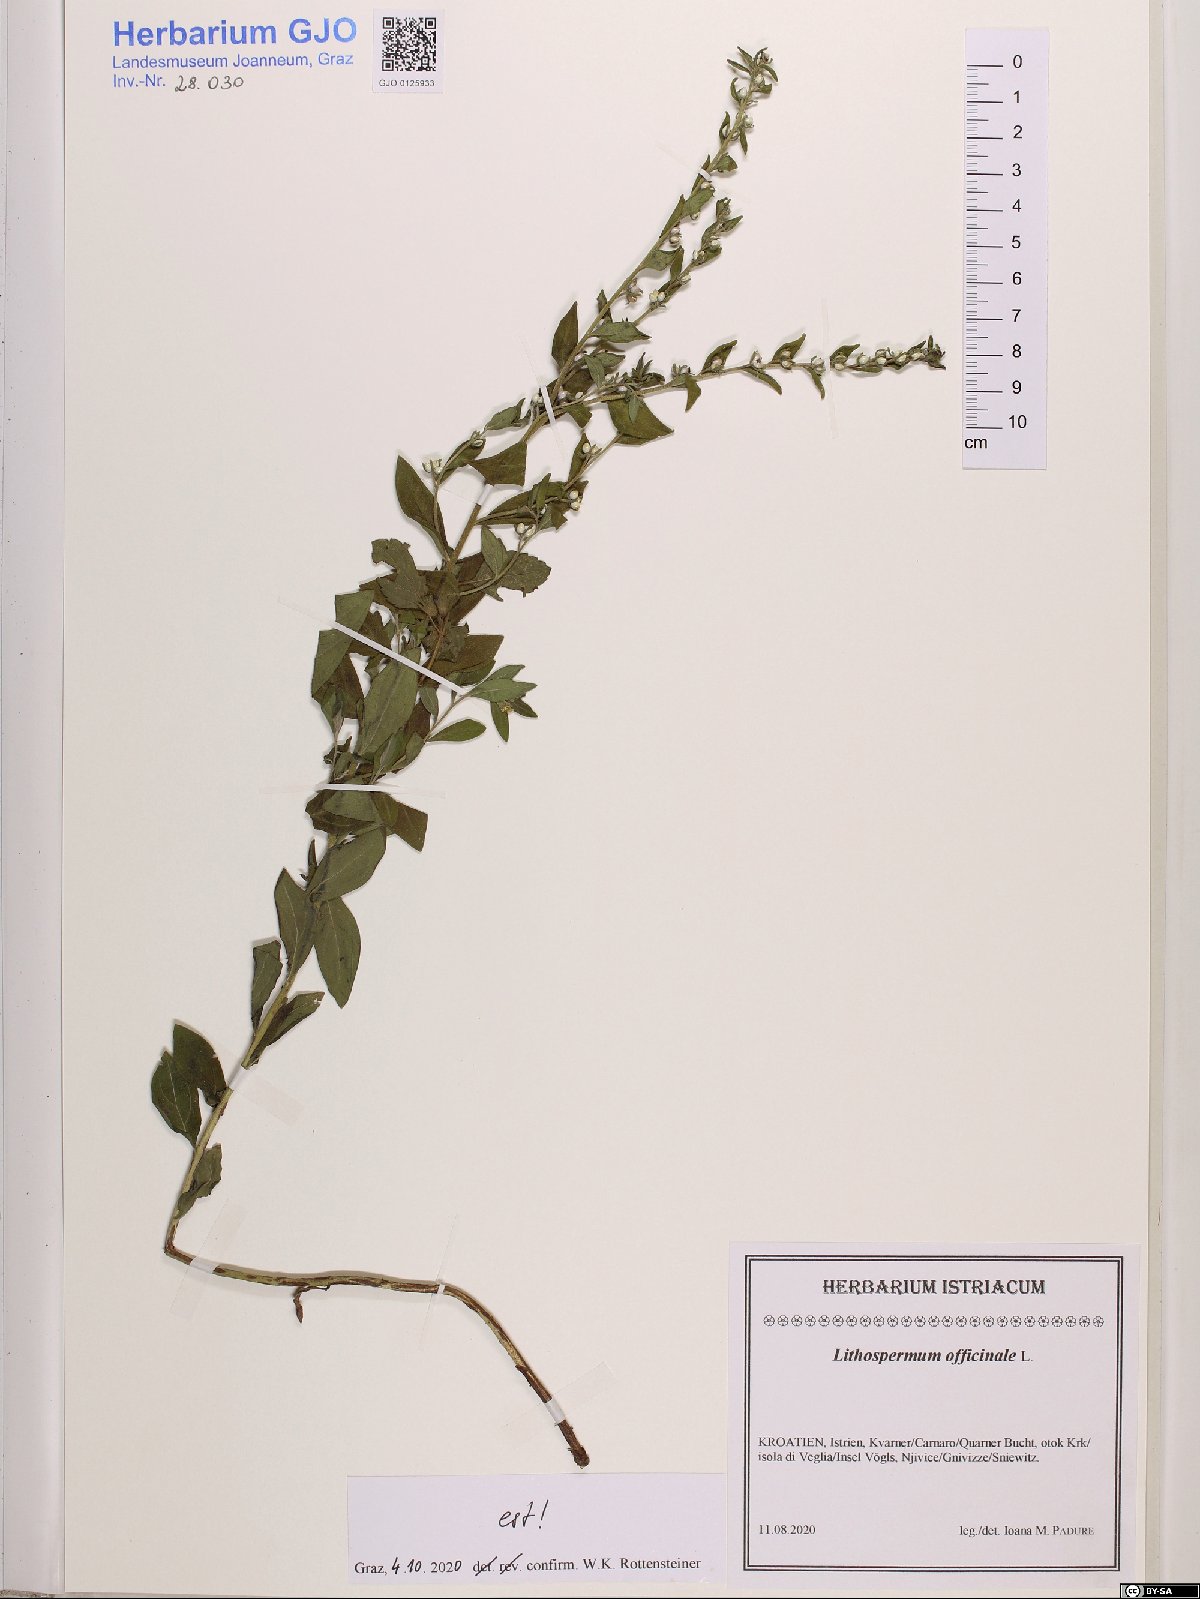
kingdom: Plantae
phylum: Tracheophyta
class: Magnoliopsida
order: Boraginales
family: Boraginaceae
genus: Lithospermum
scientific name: Lithospermum officinale
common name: Common gromwell
